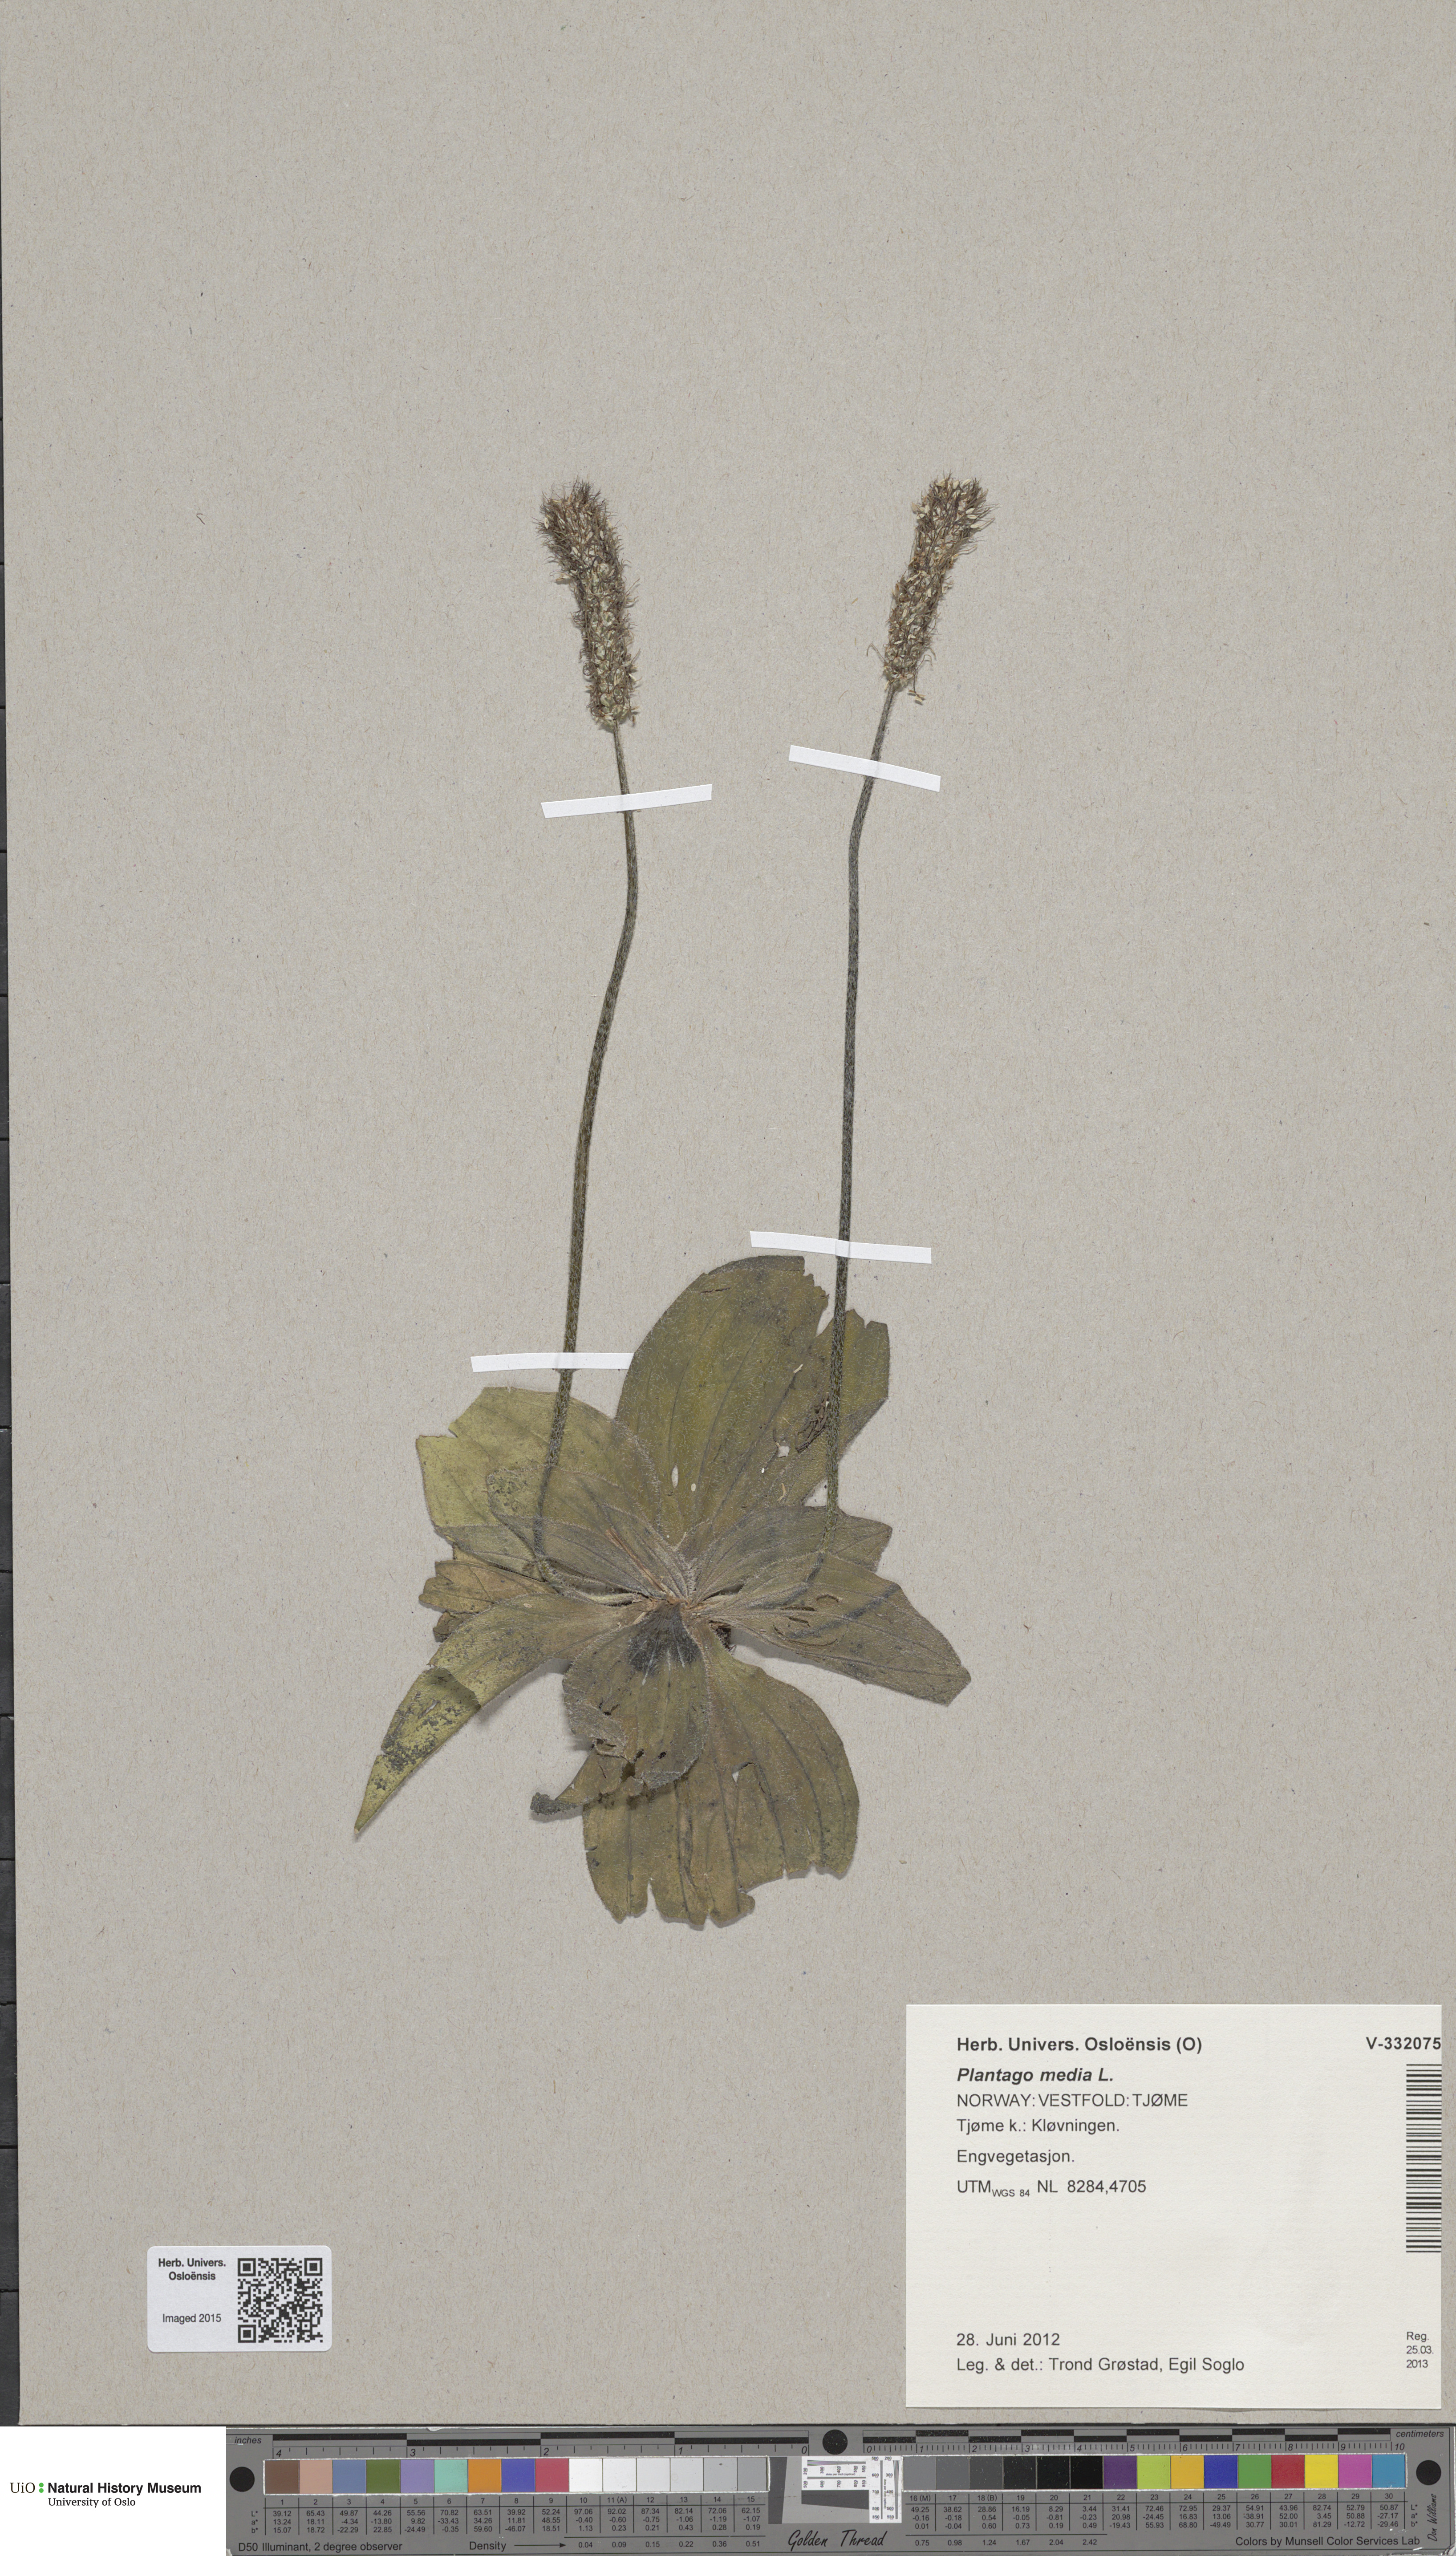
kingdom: Plantae
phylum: Tracheophyta
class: Magnoliopsida
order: Lamiales
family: Plantaginaceae
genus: Plantago
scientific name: Plantago media
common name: Hoary plantain
